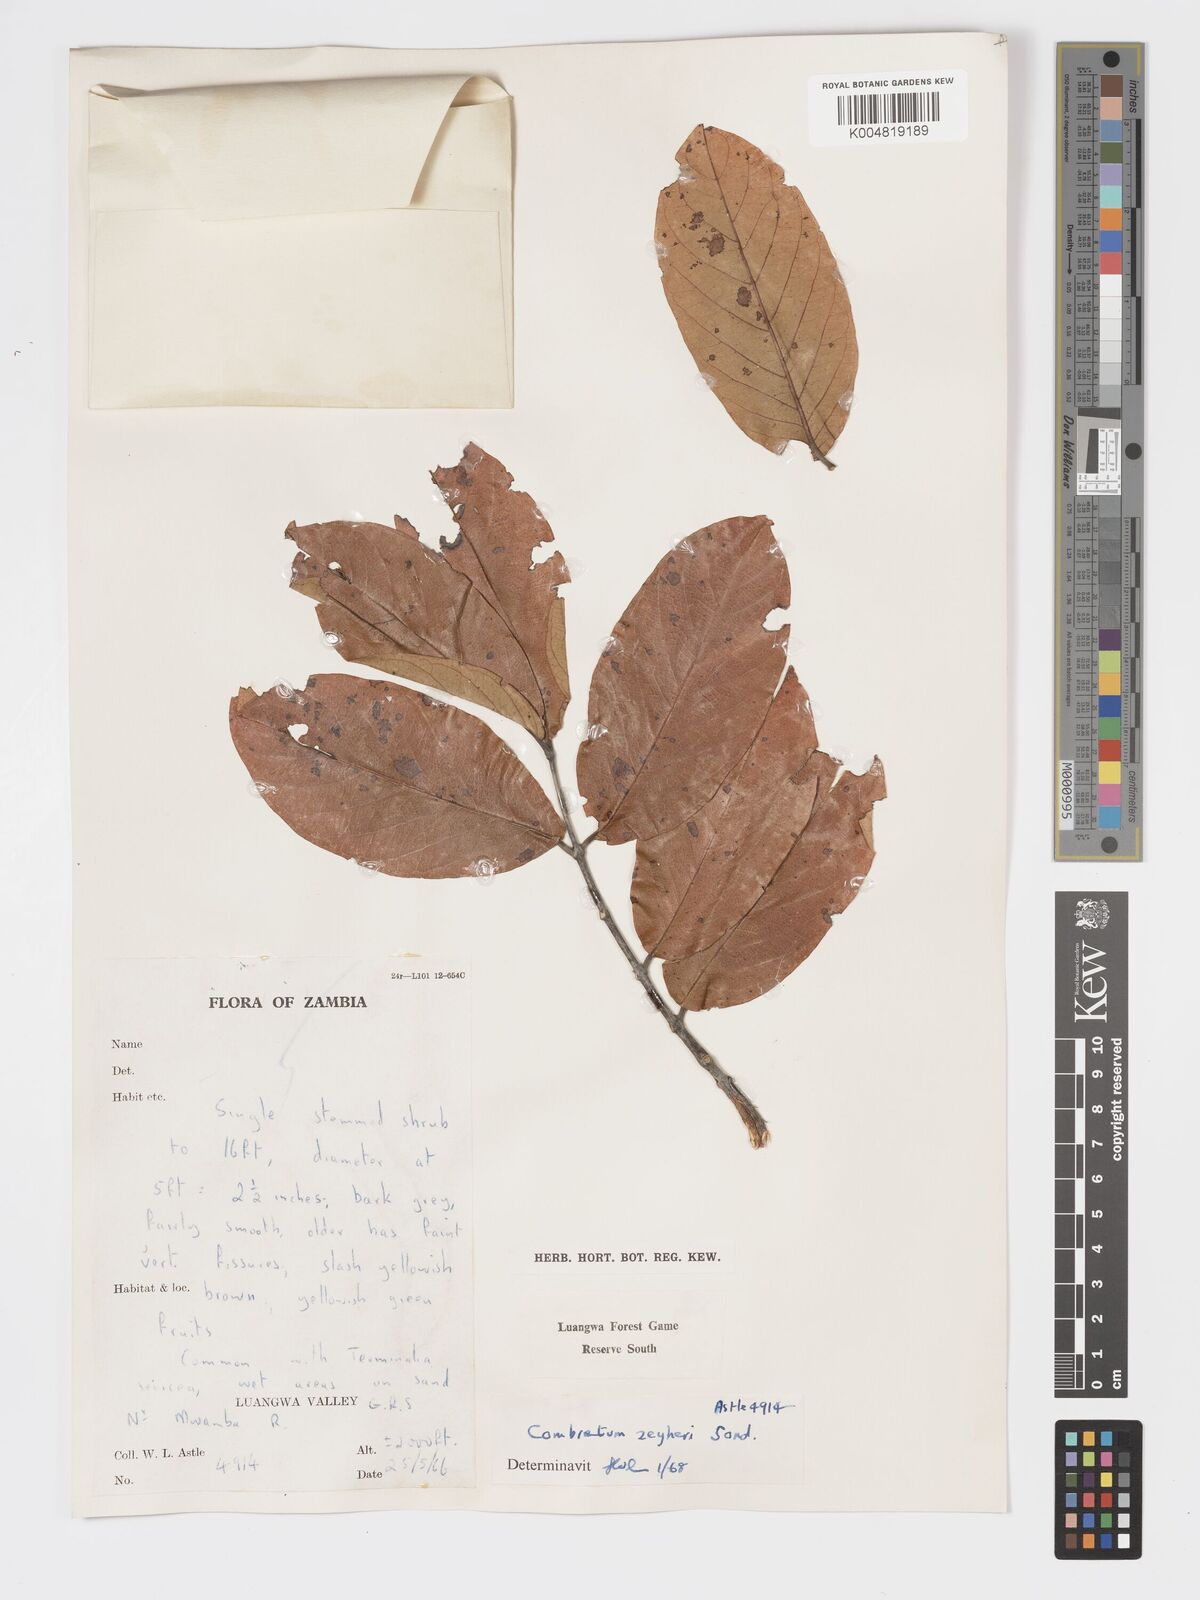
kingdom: Plantae
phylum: Tracheophyta
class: Magnoliopsida
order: Myrtales
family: Combretaceae
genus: Combretum
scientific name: Combretum zeyheri
